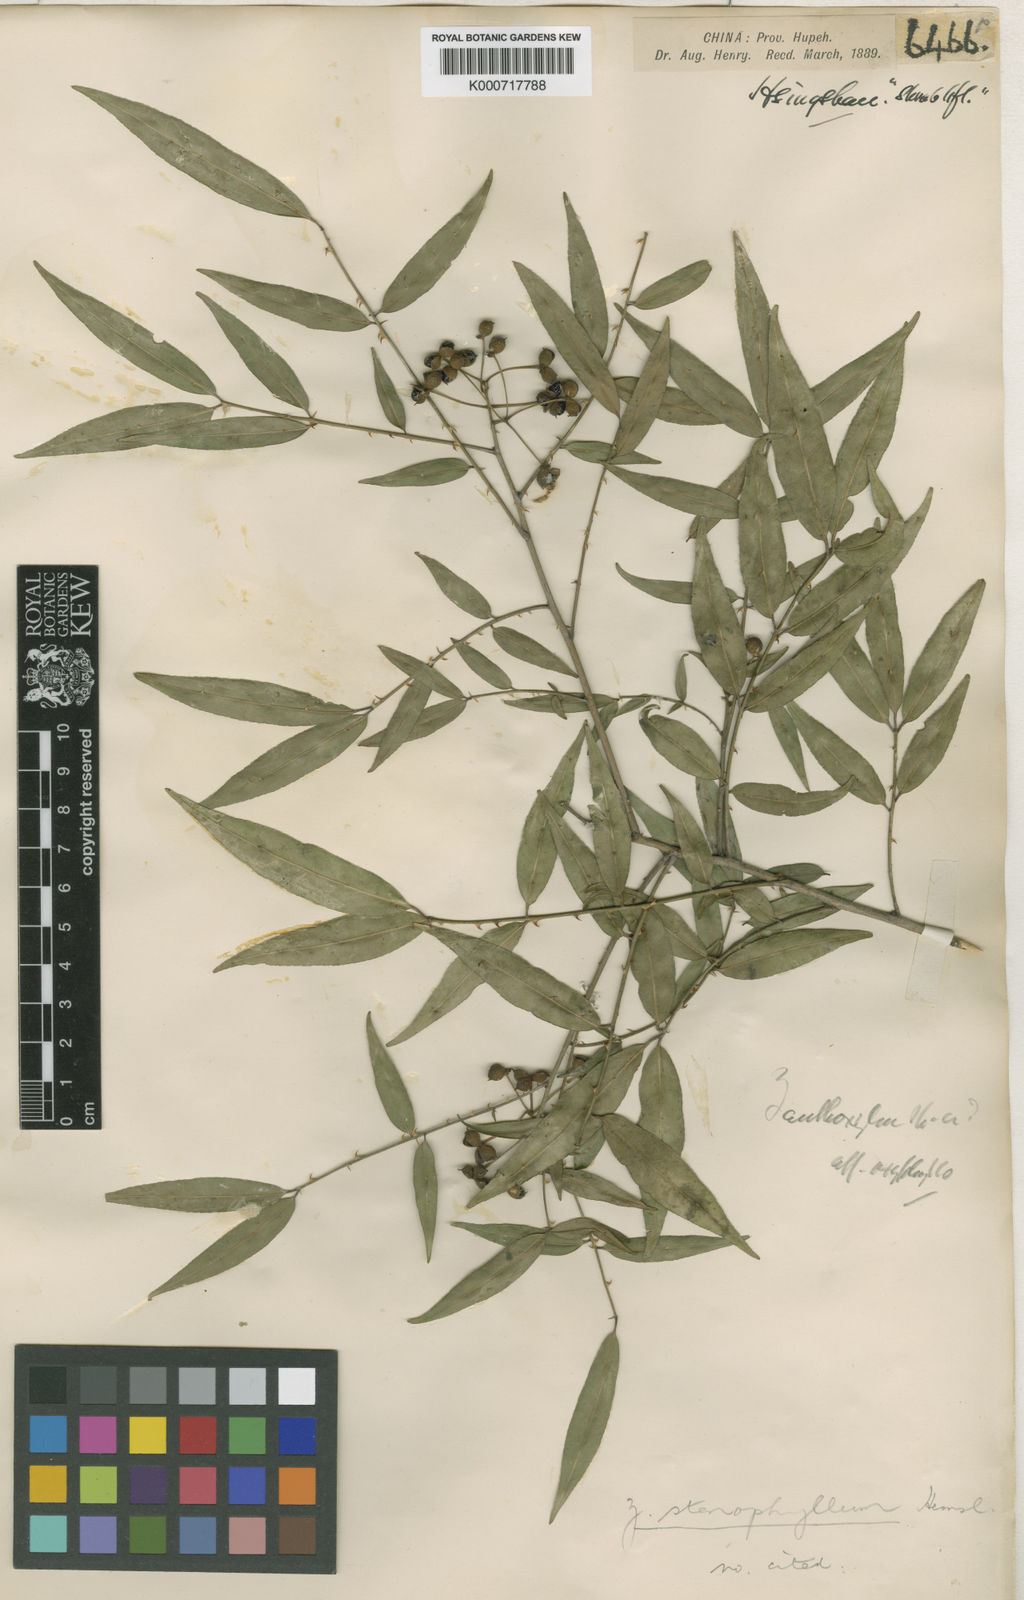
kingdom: Plantae
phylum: Tracheophyta
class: Magnoliopsida
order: Sapindales
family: Rutaceae
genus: Zanthoxylum
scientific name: Zanthoxylum stenophyllum
